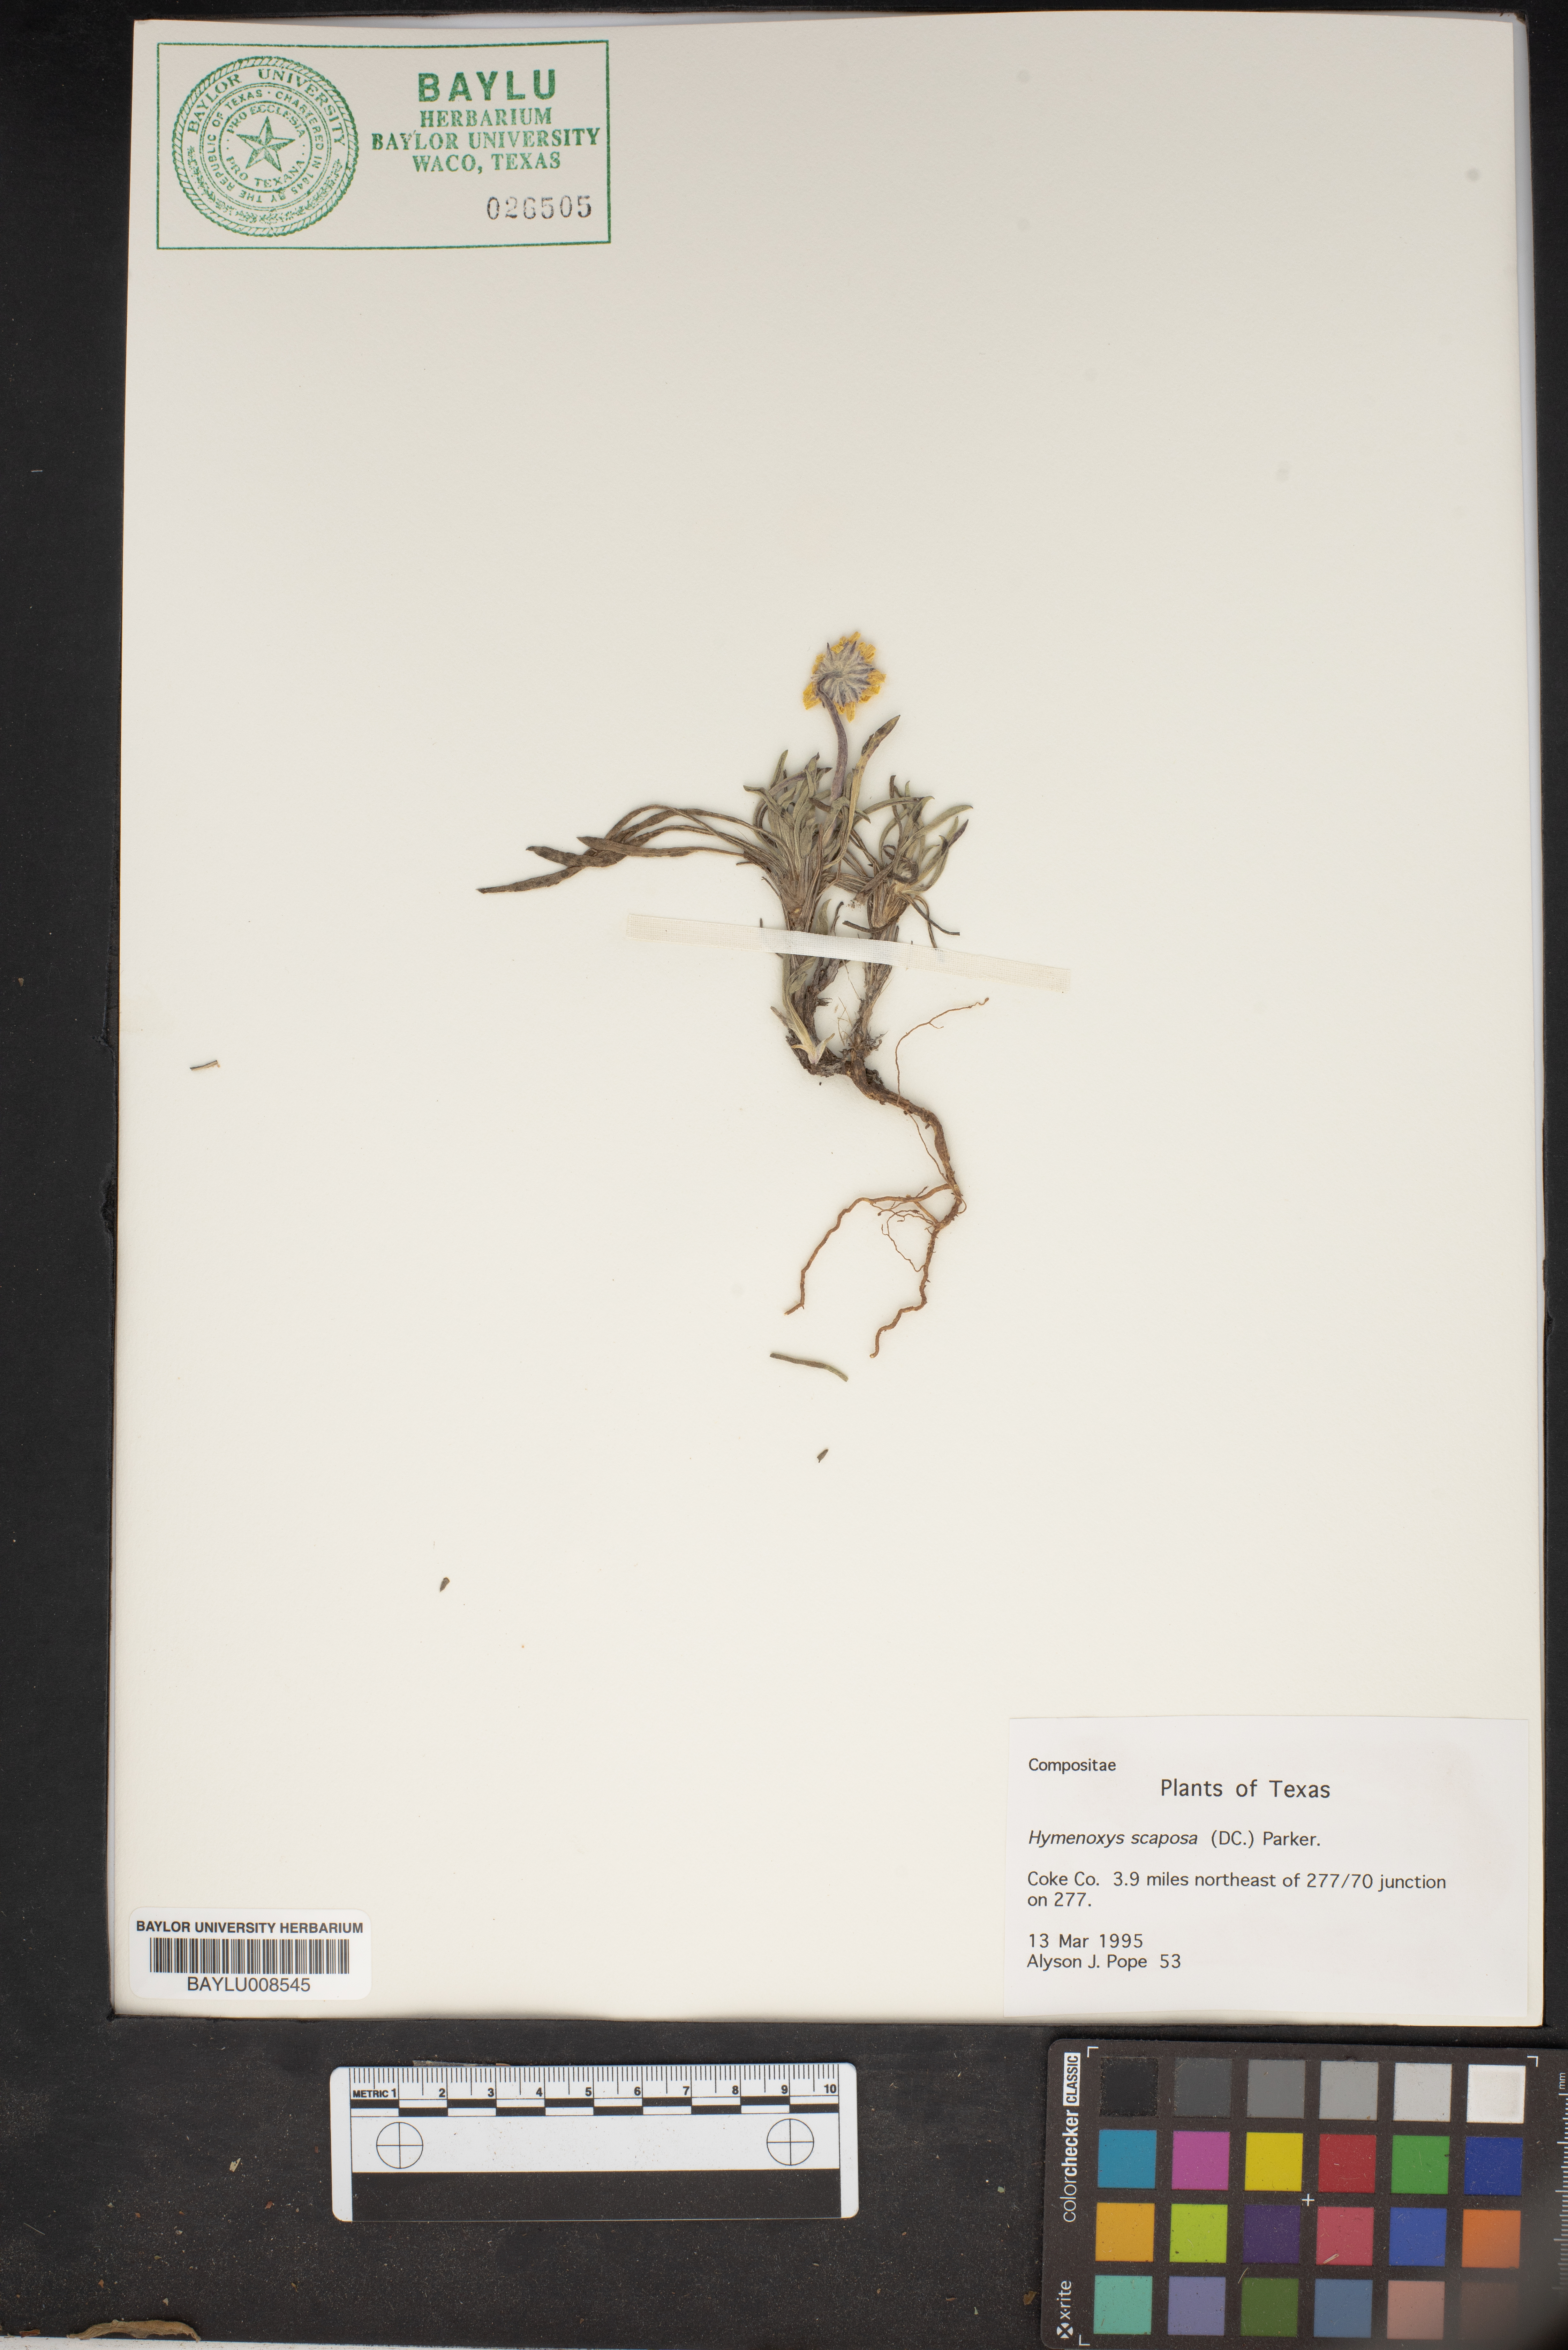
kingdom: Plantae
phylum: Tracheophyta
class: Magnoliopsida
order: Asterales
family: Asteraceae
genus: Tetraneuris
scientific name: Tetraneuris scaposa
